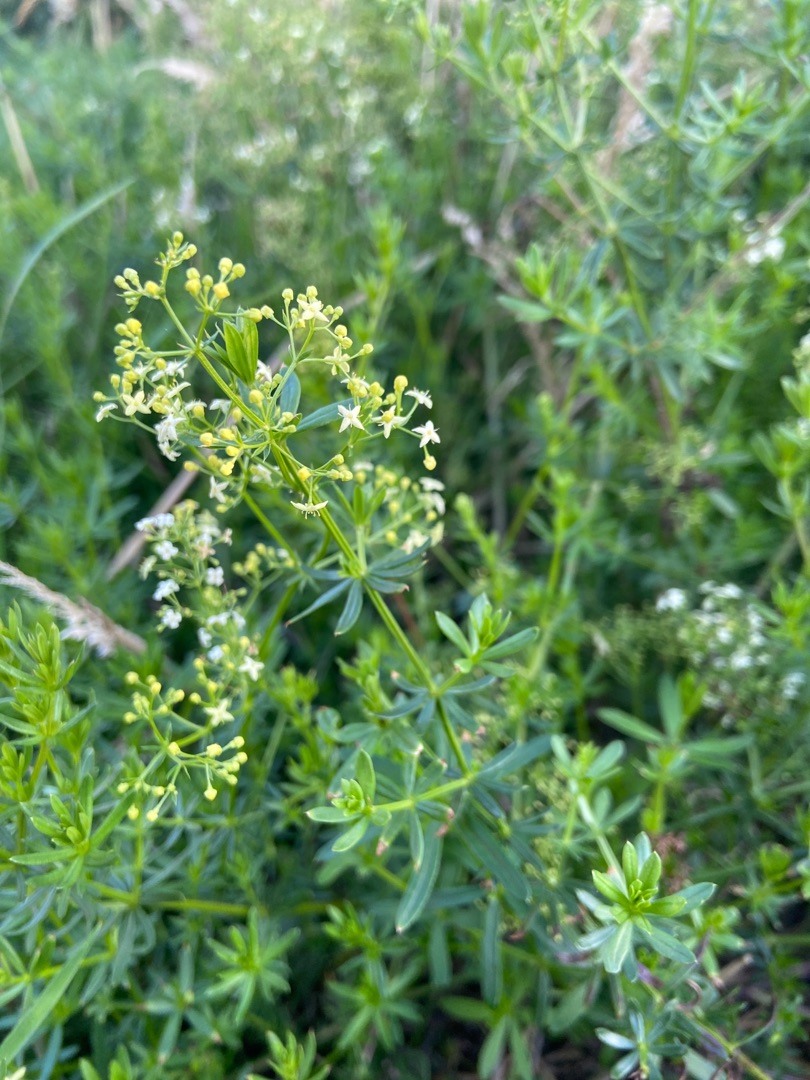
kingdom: Plantae
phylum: Tracheophyta
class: Magnoliopsida
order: Gentianales
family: Rubiaceae
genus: Galium
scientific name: Galium mollugo
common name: Hvid snerre
